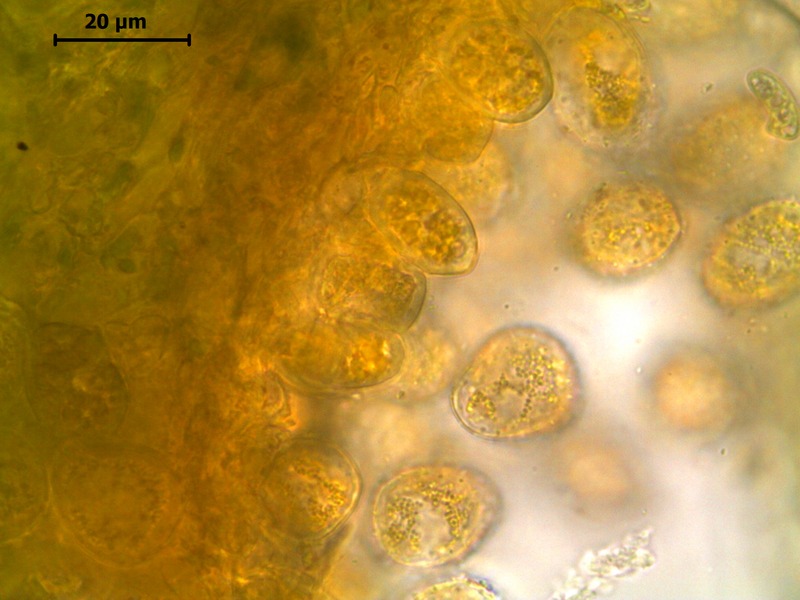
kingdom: Fungi
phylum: Basidiomycota
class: Pucciniomycetes
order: Pucciniales
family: Pucciniastraceae
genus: Pucciniastrum
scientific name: Pucciniastrum epilobii
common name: Fuchsia rust
